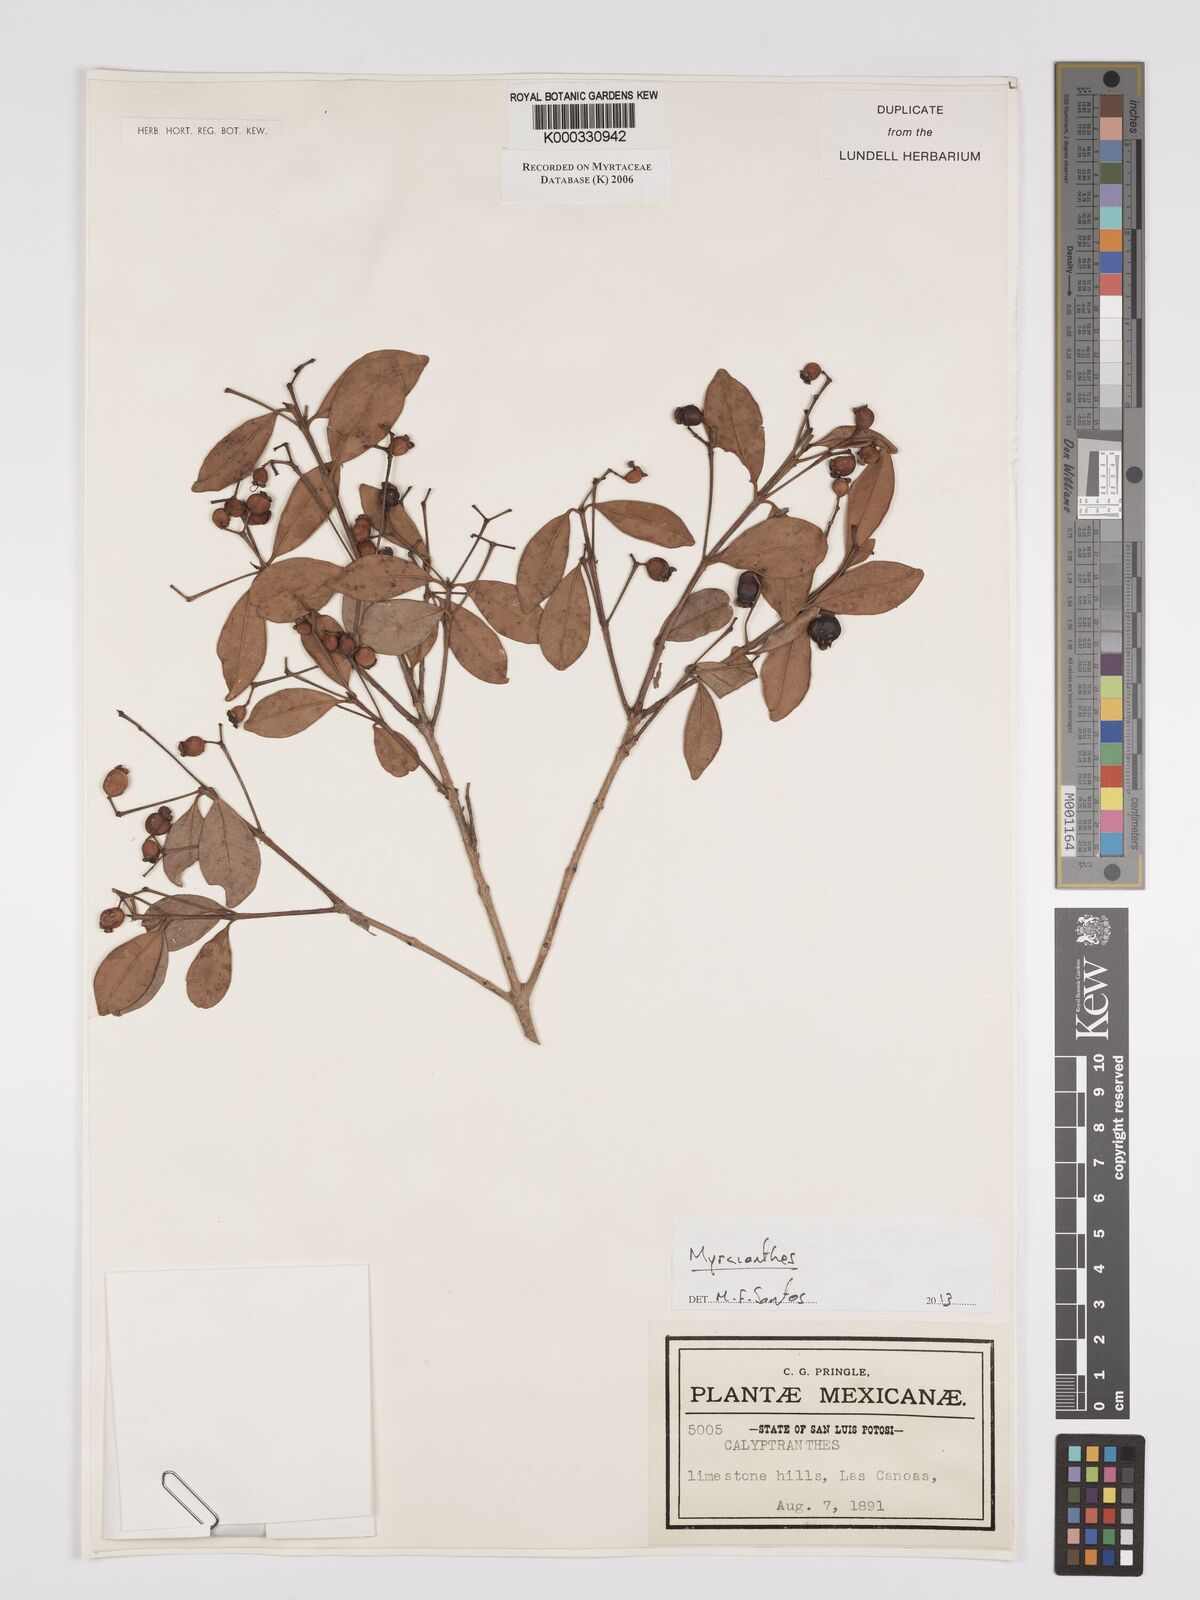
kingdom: Plantae
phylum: Tracheophyta
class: Magnoliopsida
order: Myrtales
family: Myrtaceae
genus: Calyptranthes
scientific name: Calyptranthes
